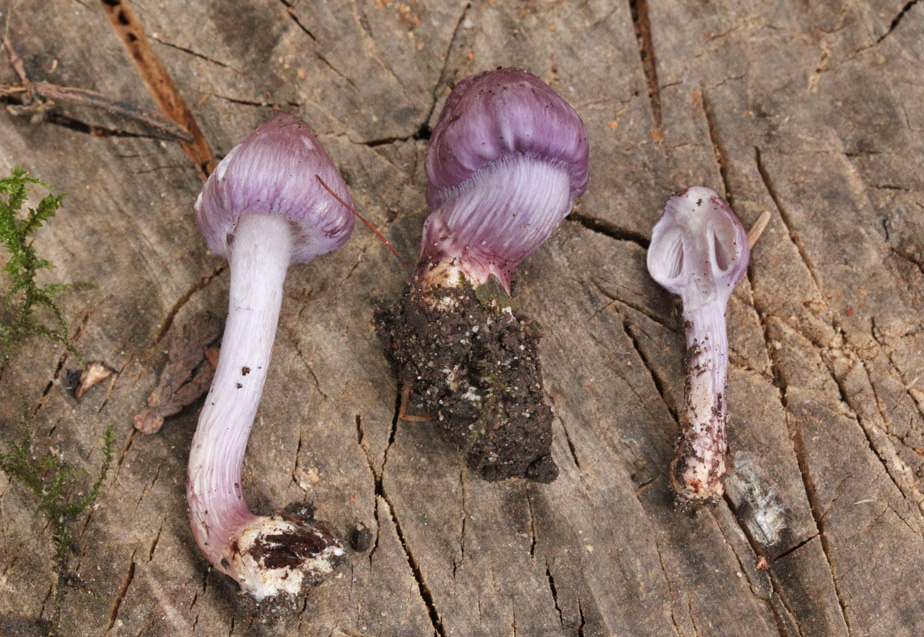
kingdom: Fungi
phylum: Basidiomycota
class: Agaricomycetes
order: Agaricales
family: Inocybaceae
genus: Inocybe
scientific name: Inocybe geophylla
